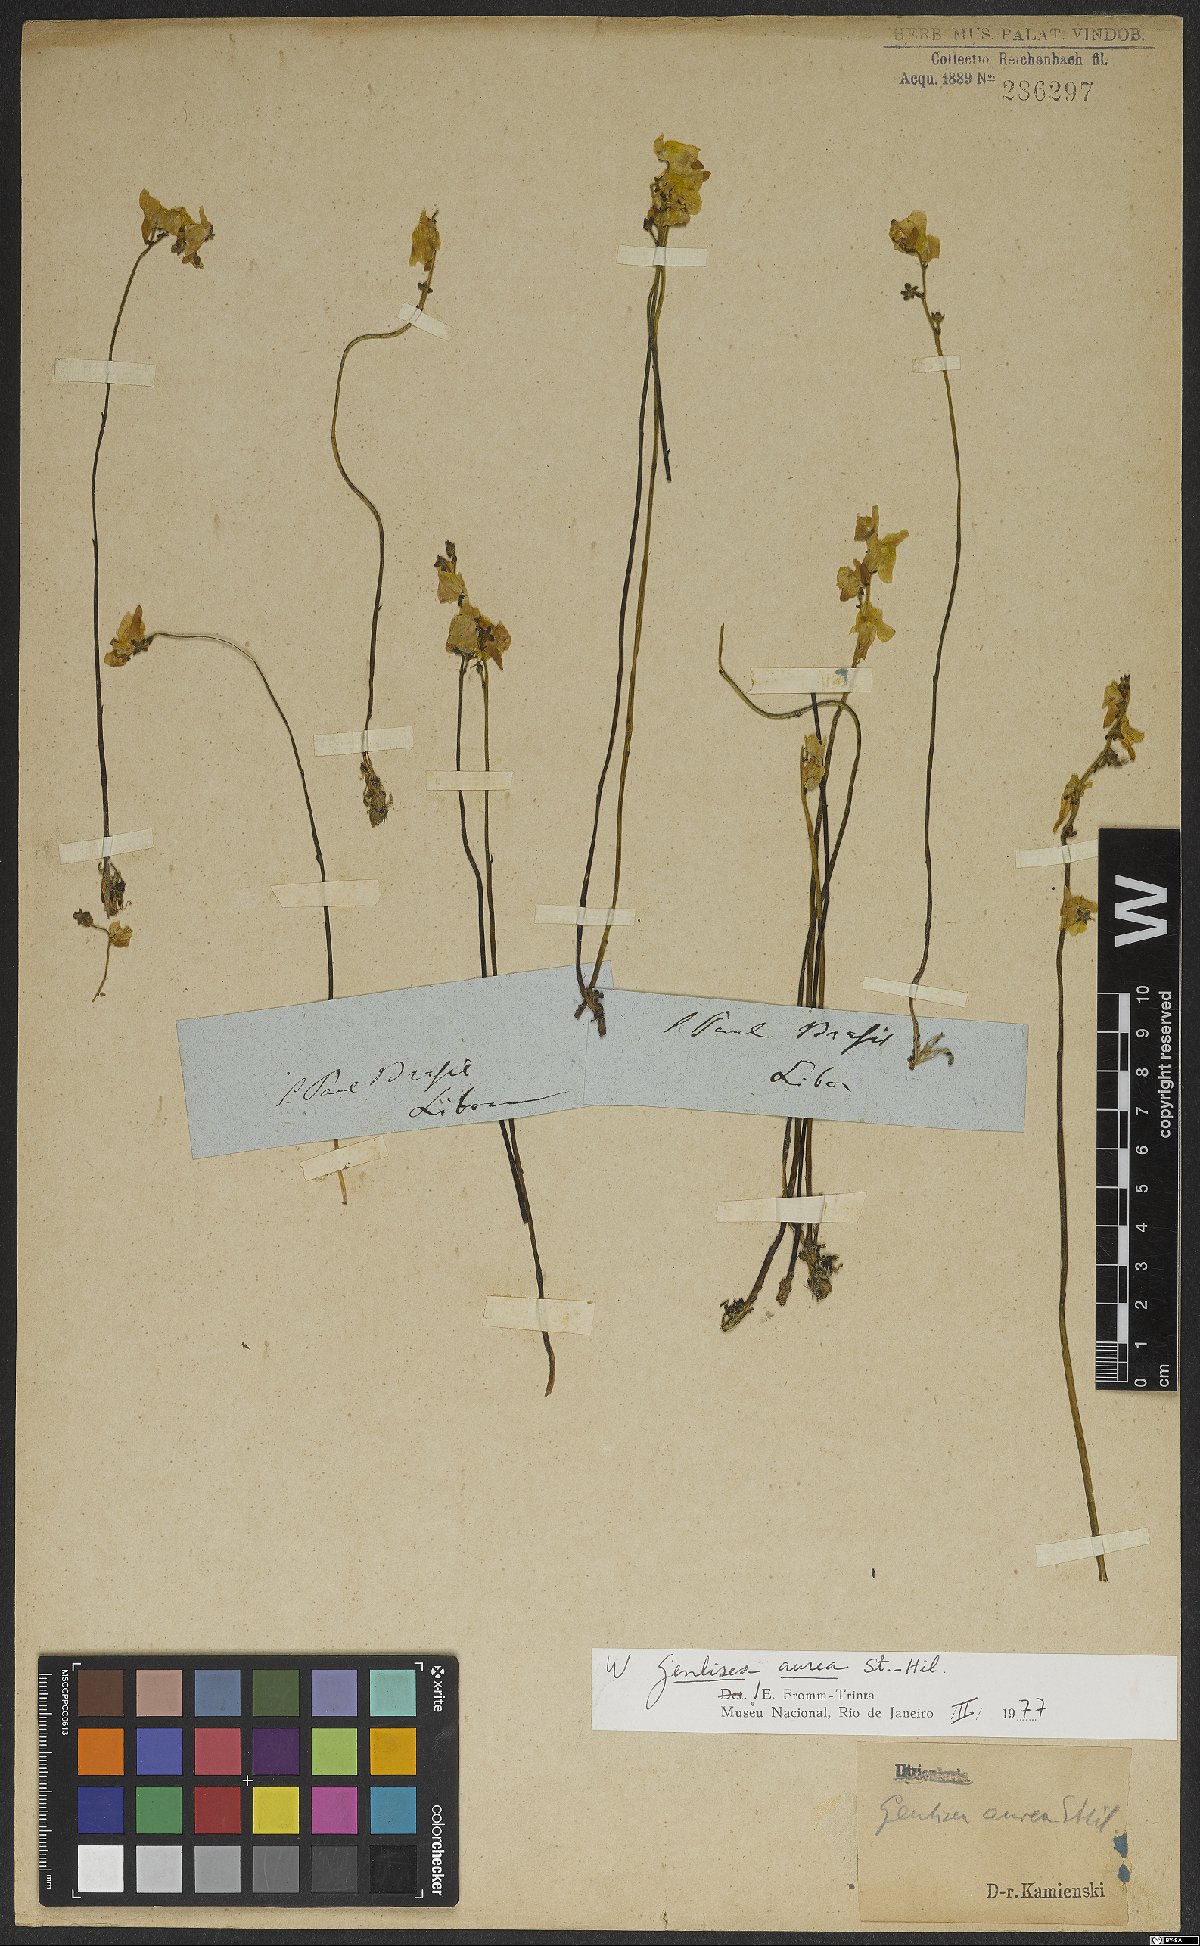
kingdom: Plantae
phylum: Tracheophyta
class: Magnoliopsida
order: Lamiales
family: Lentibulariaceae
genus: Genlisea
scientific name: Genlisea aurea
